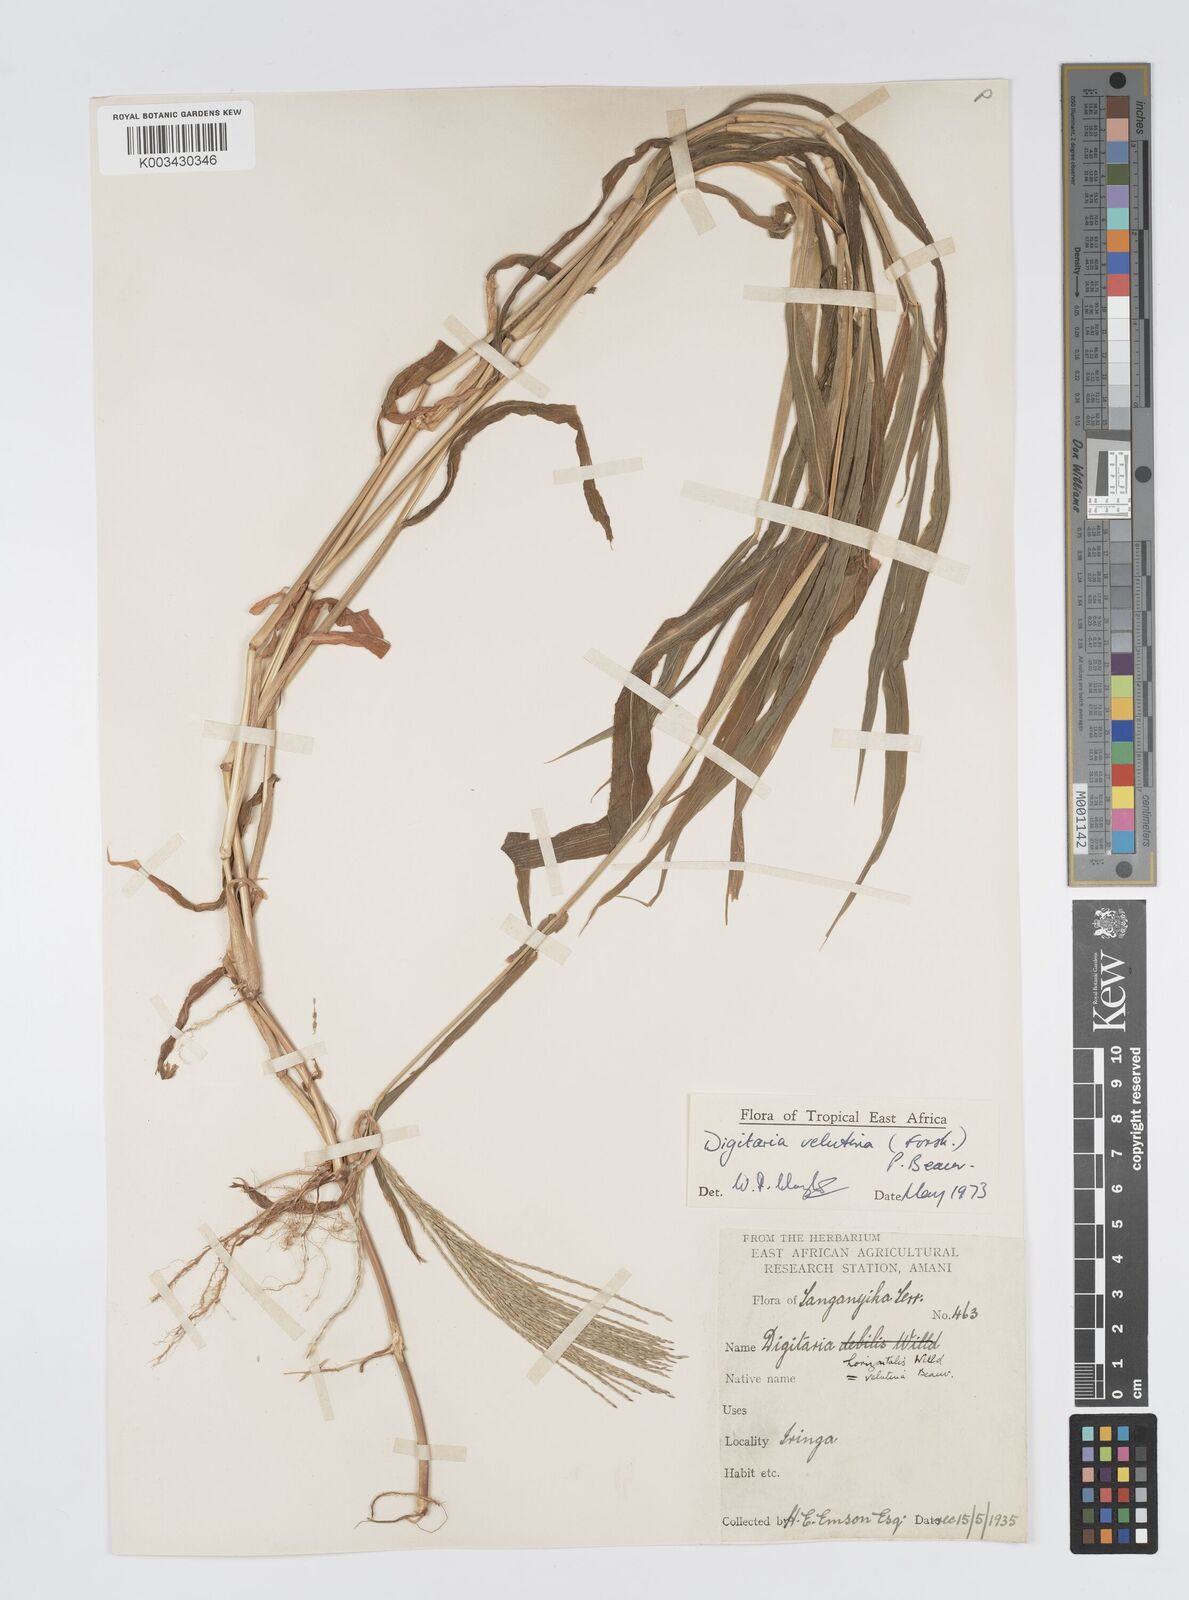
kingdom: Plantae
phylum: Tracheophyta
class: Liliopsida
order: Poales
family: Poaceae
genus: Digitaria
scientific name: Digitaria velutina
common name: Long-plume finger grass
